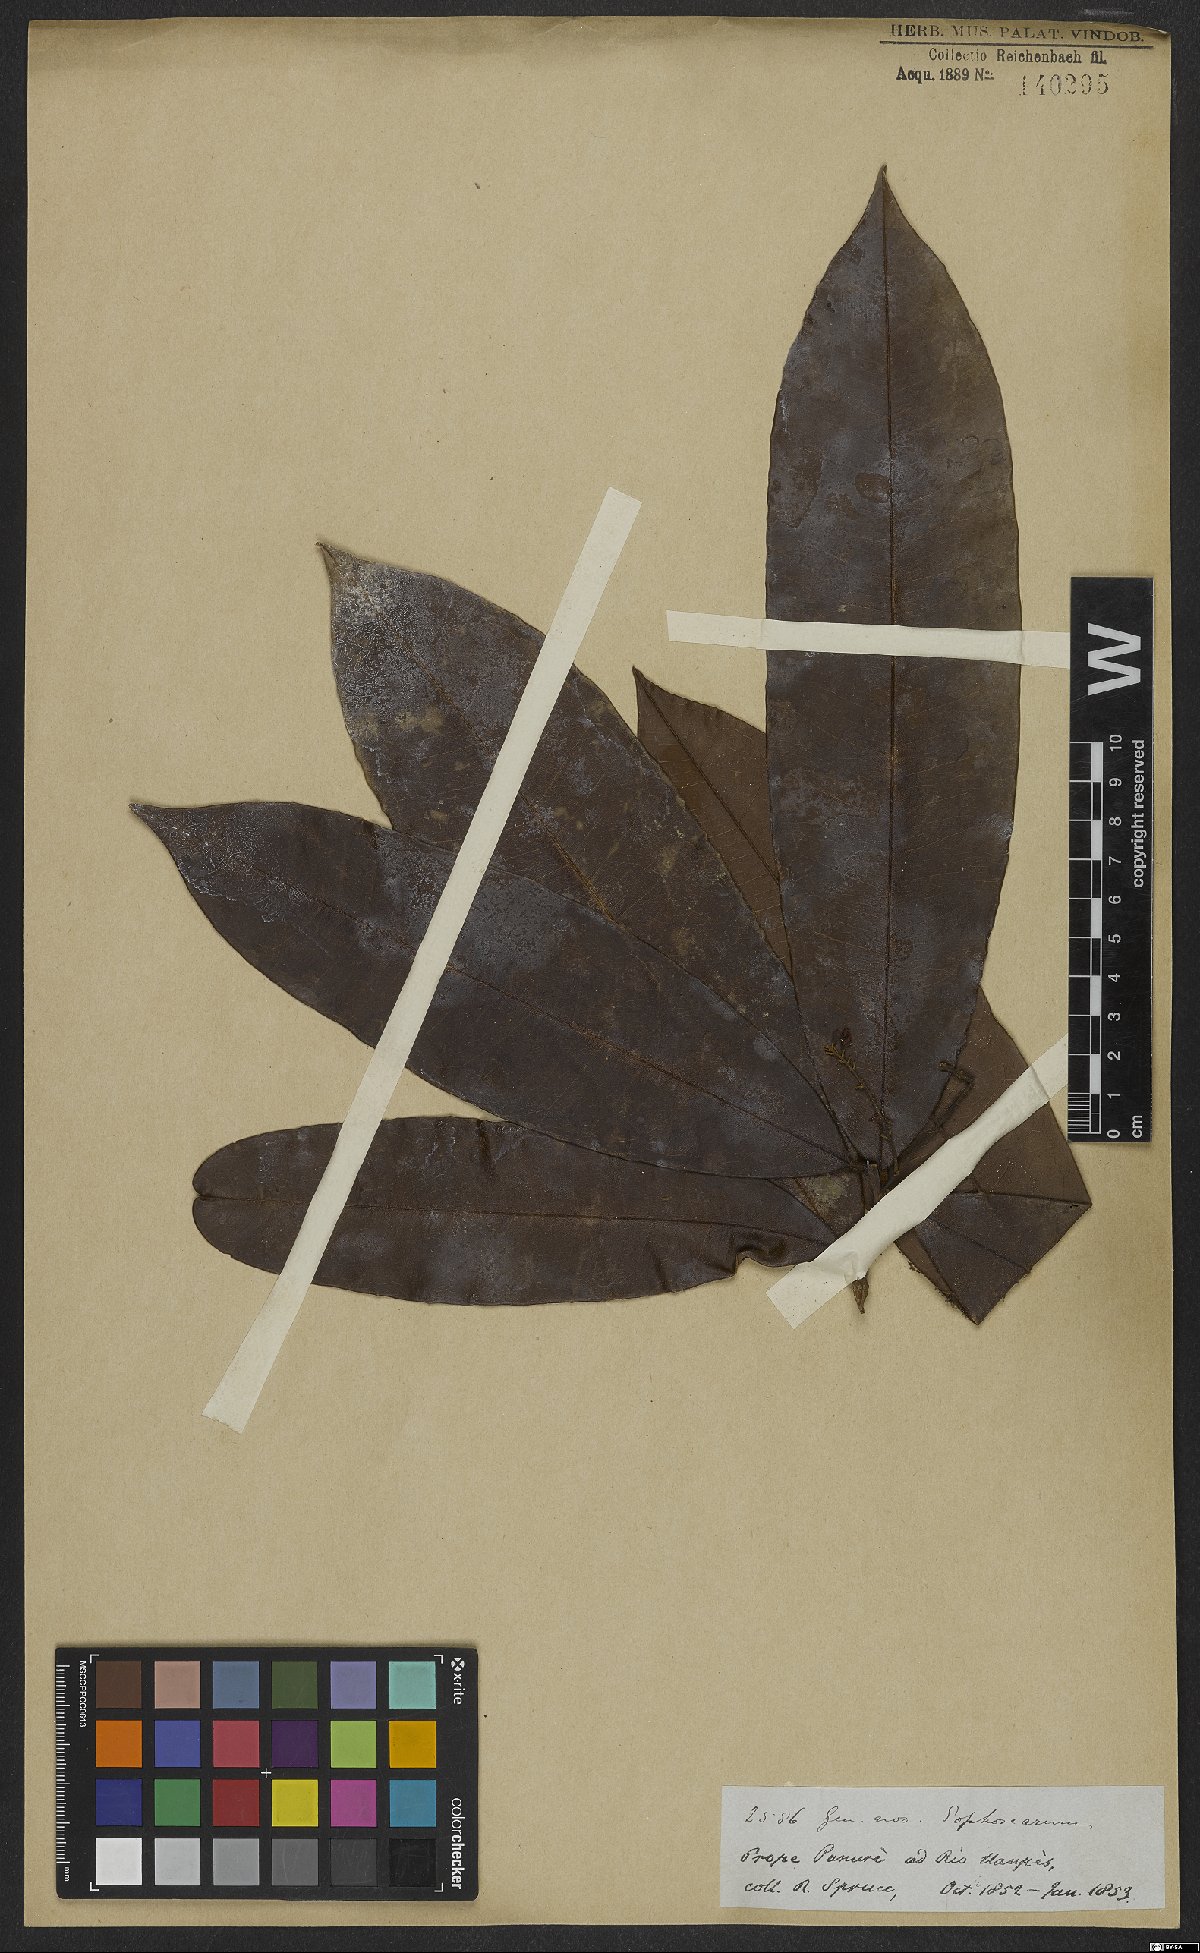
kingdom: Plantae
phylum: Tracheophyta
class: Magnoliopsida
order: Fabales
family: Fabaceae
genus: Sophora
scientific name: Sophora
